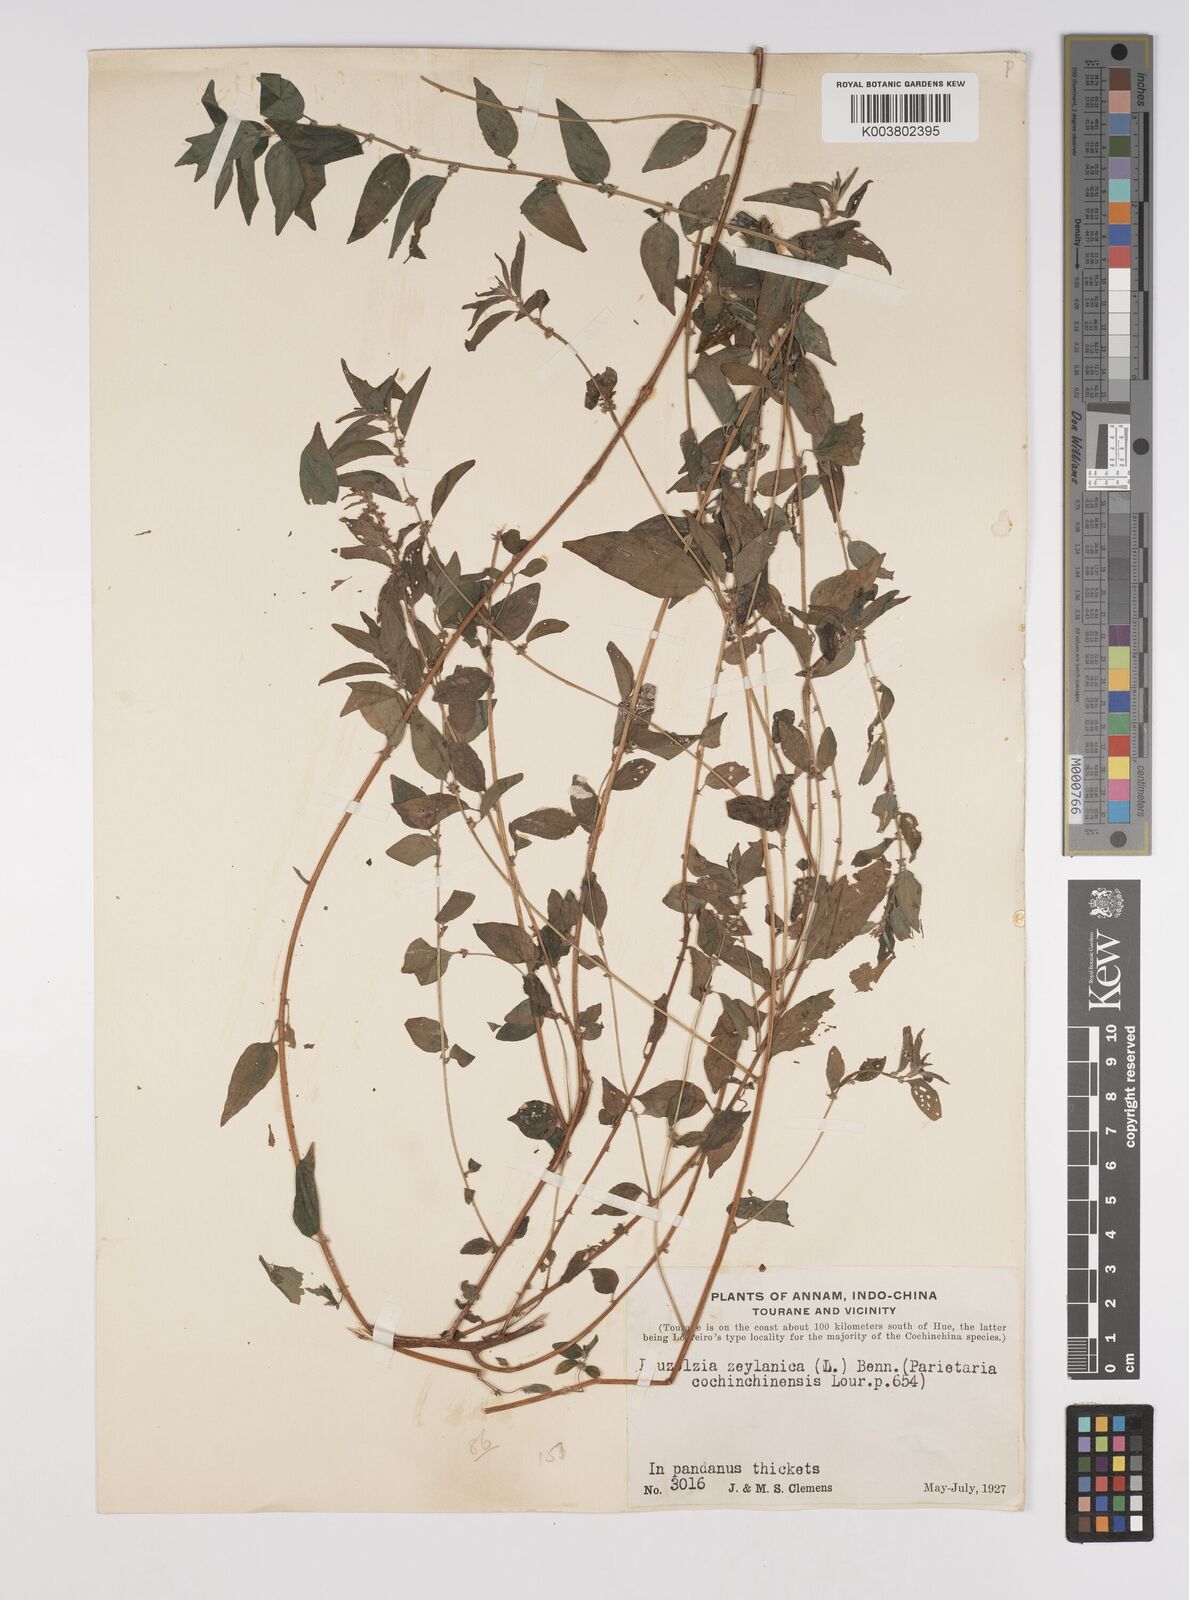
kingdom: Plantae
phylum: Tracheophyta
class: Magnoliopsida
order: Rosales
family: Urticaceae
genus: Pouzolzia
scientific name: Pouzolzia zeylanica
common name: Graceful pouzolzsbush
